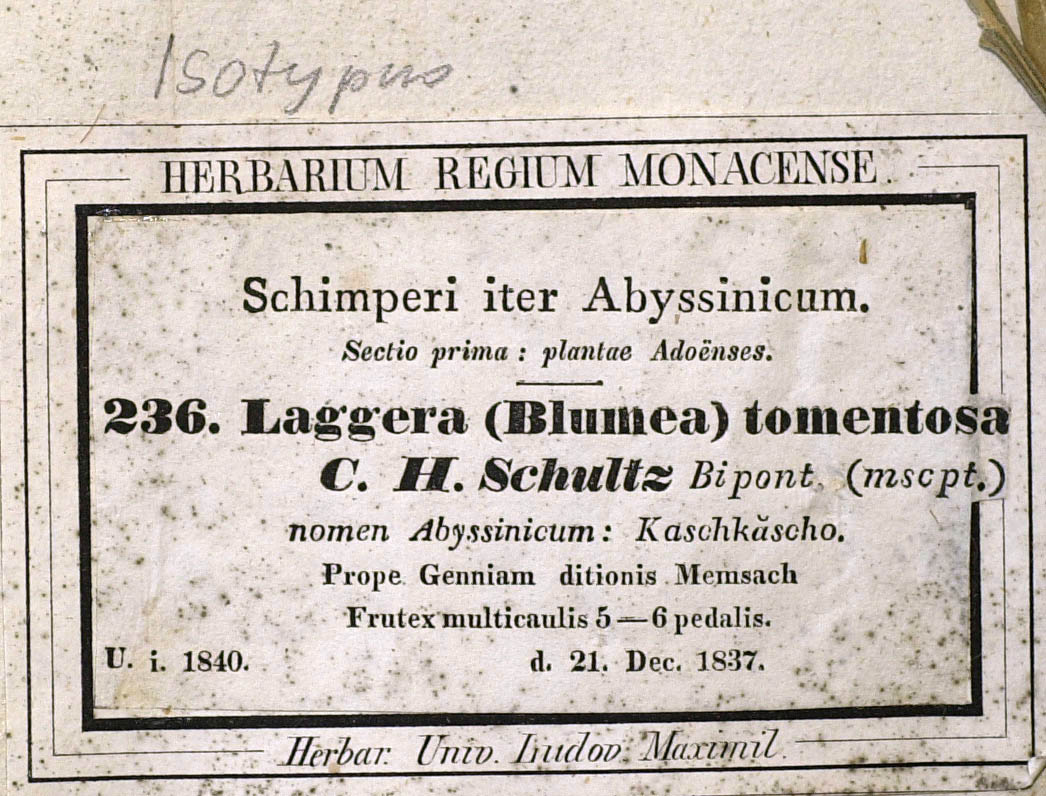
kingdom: Plantae
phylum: Tracheophyta
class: Magnoliopsida
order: Asterales
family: Asteraceae
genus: Laggera
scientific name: Laggera tomentosa
